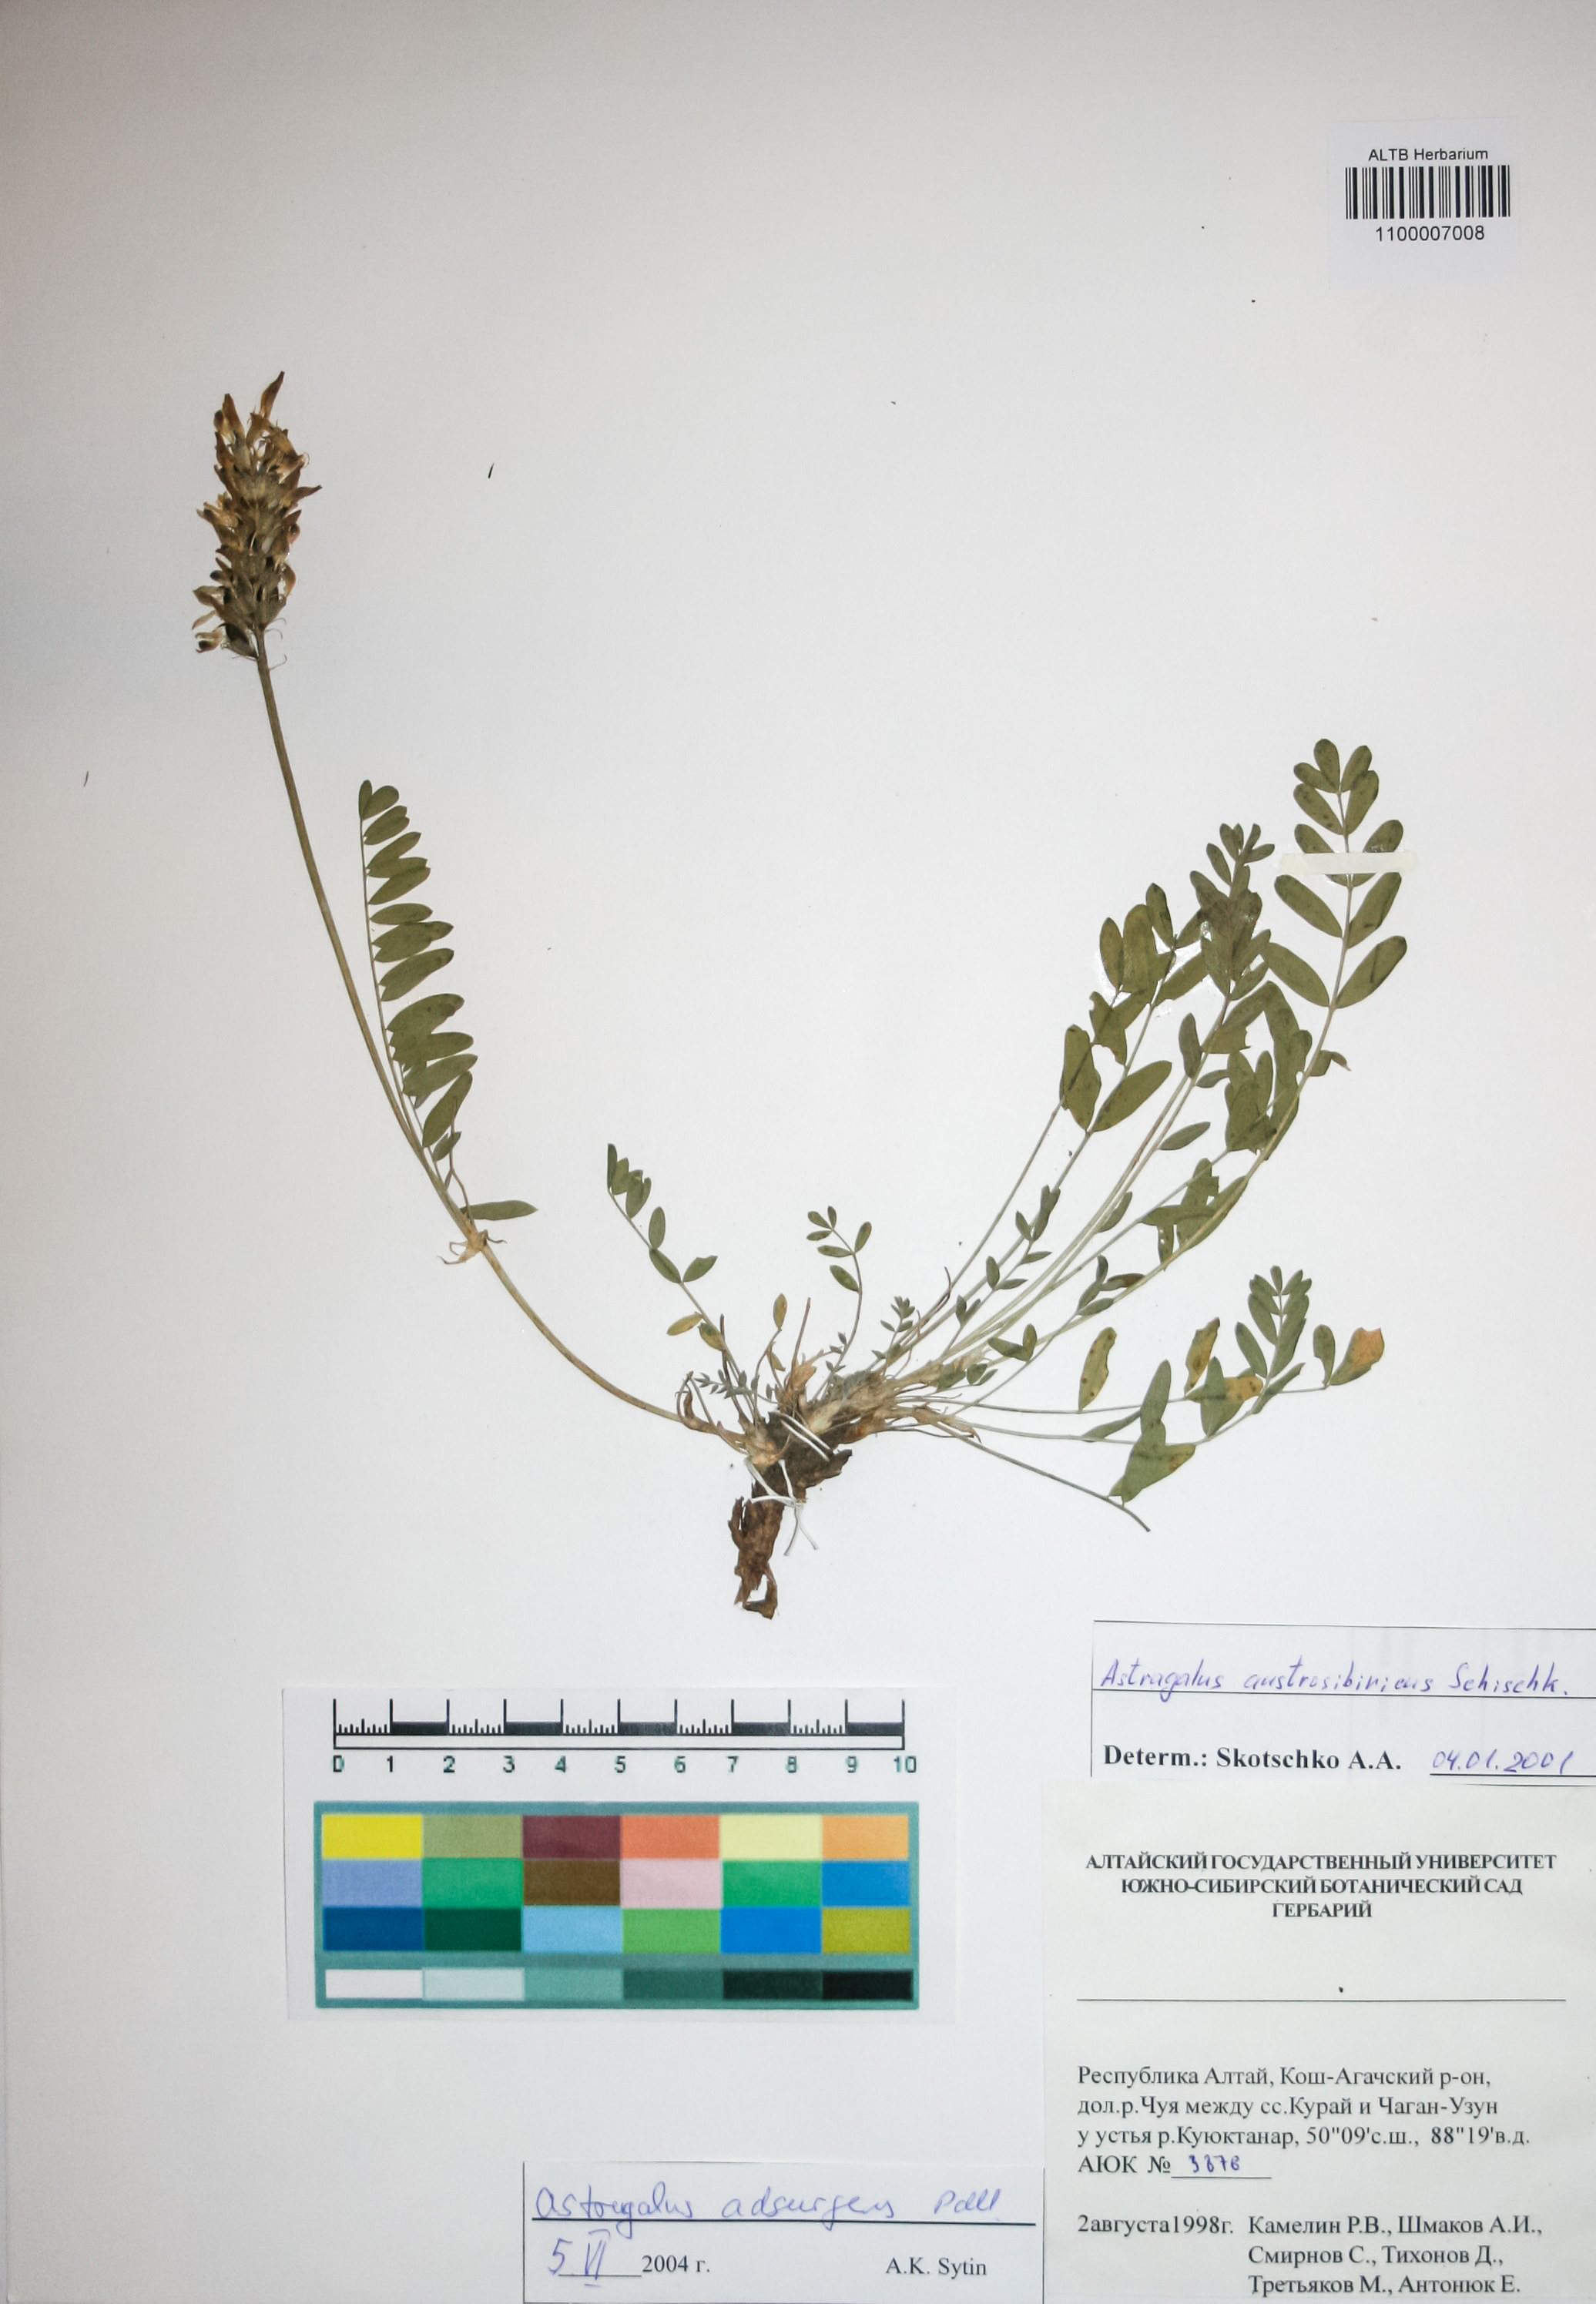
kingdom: Plantae
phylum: Tracheophyta
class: Magnoliopsida
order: Fabales
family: Fabaceae
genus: Astragalus
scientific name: Astragalus laxmannii
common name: Laxmann's milk-vetch
